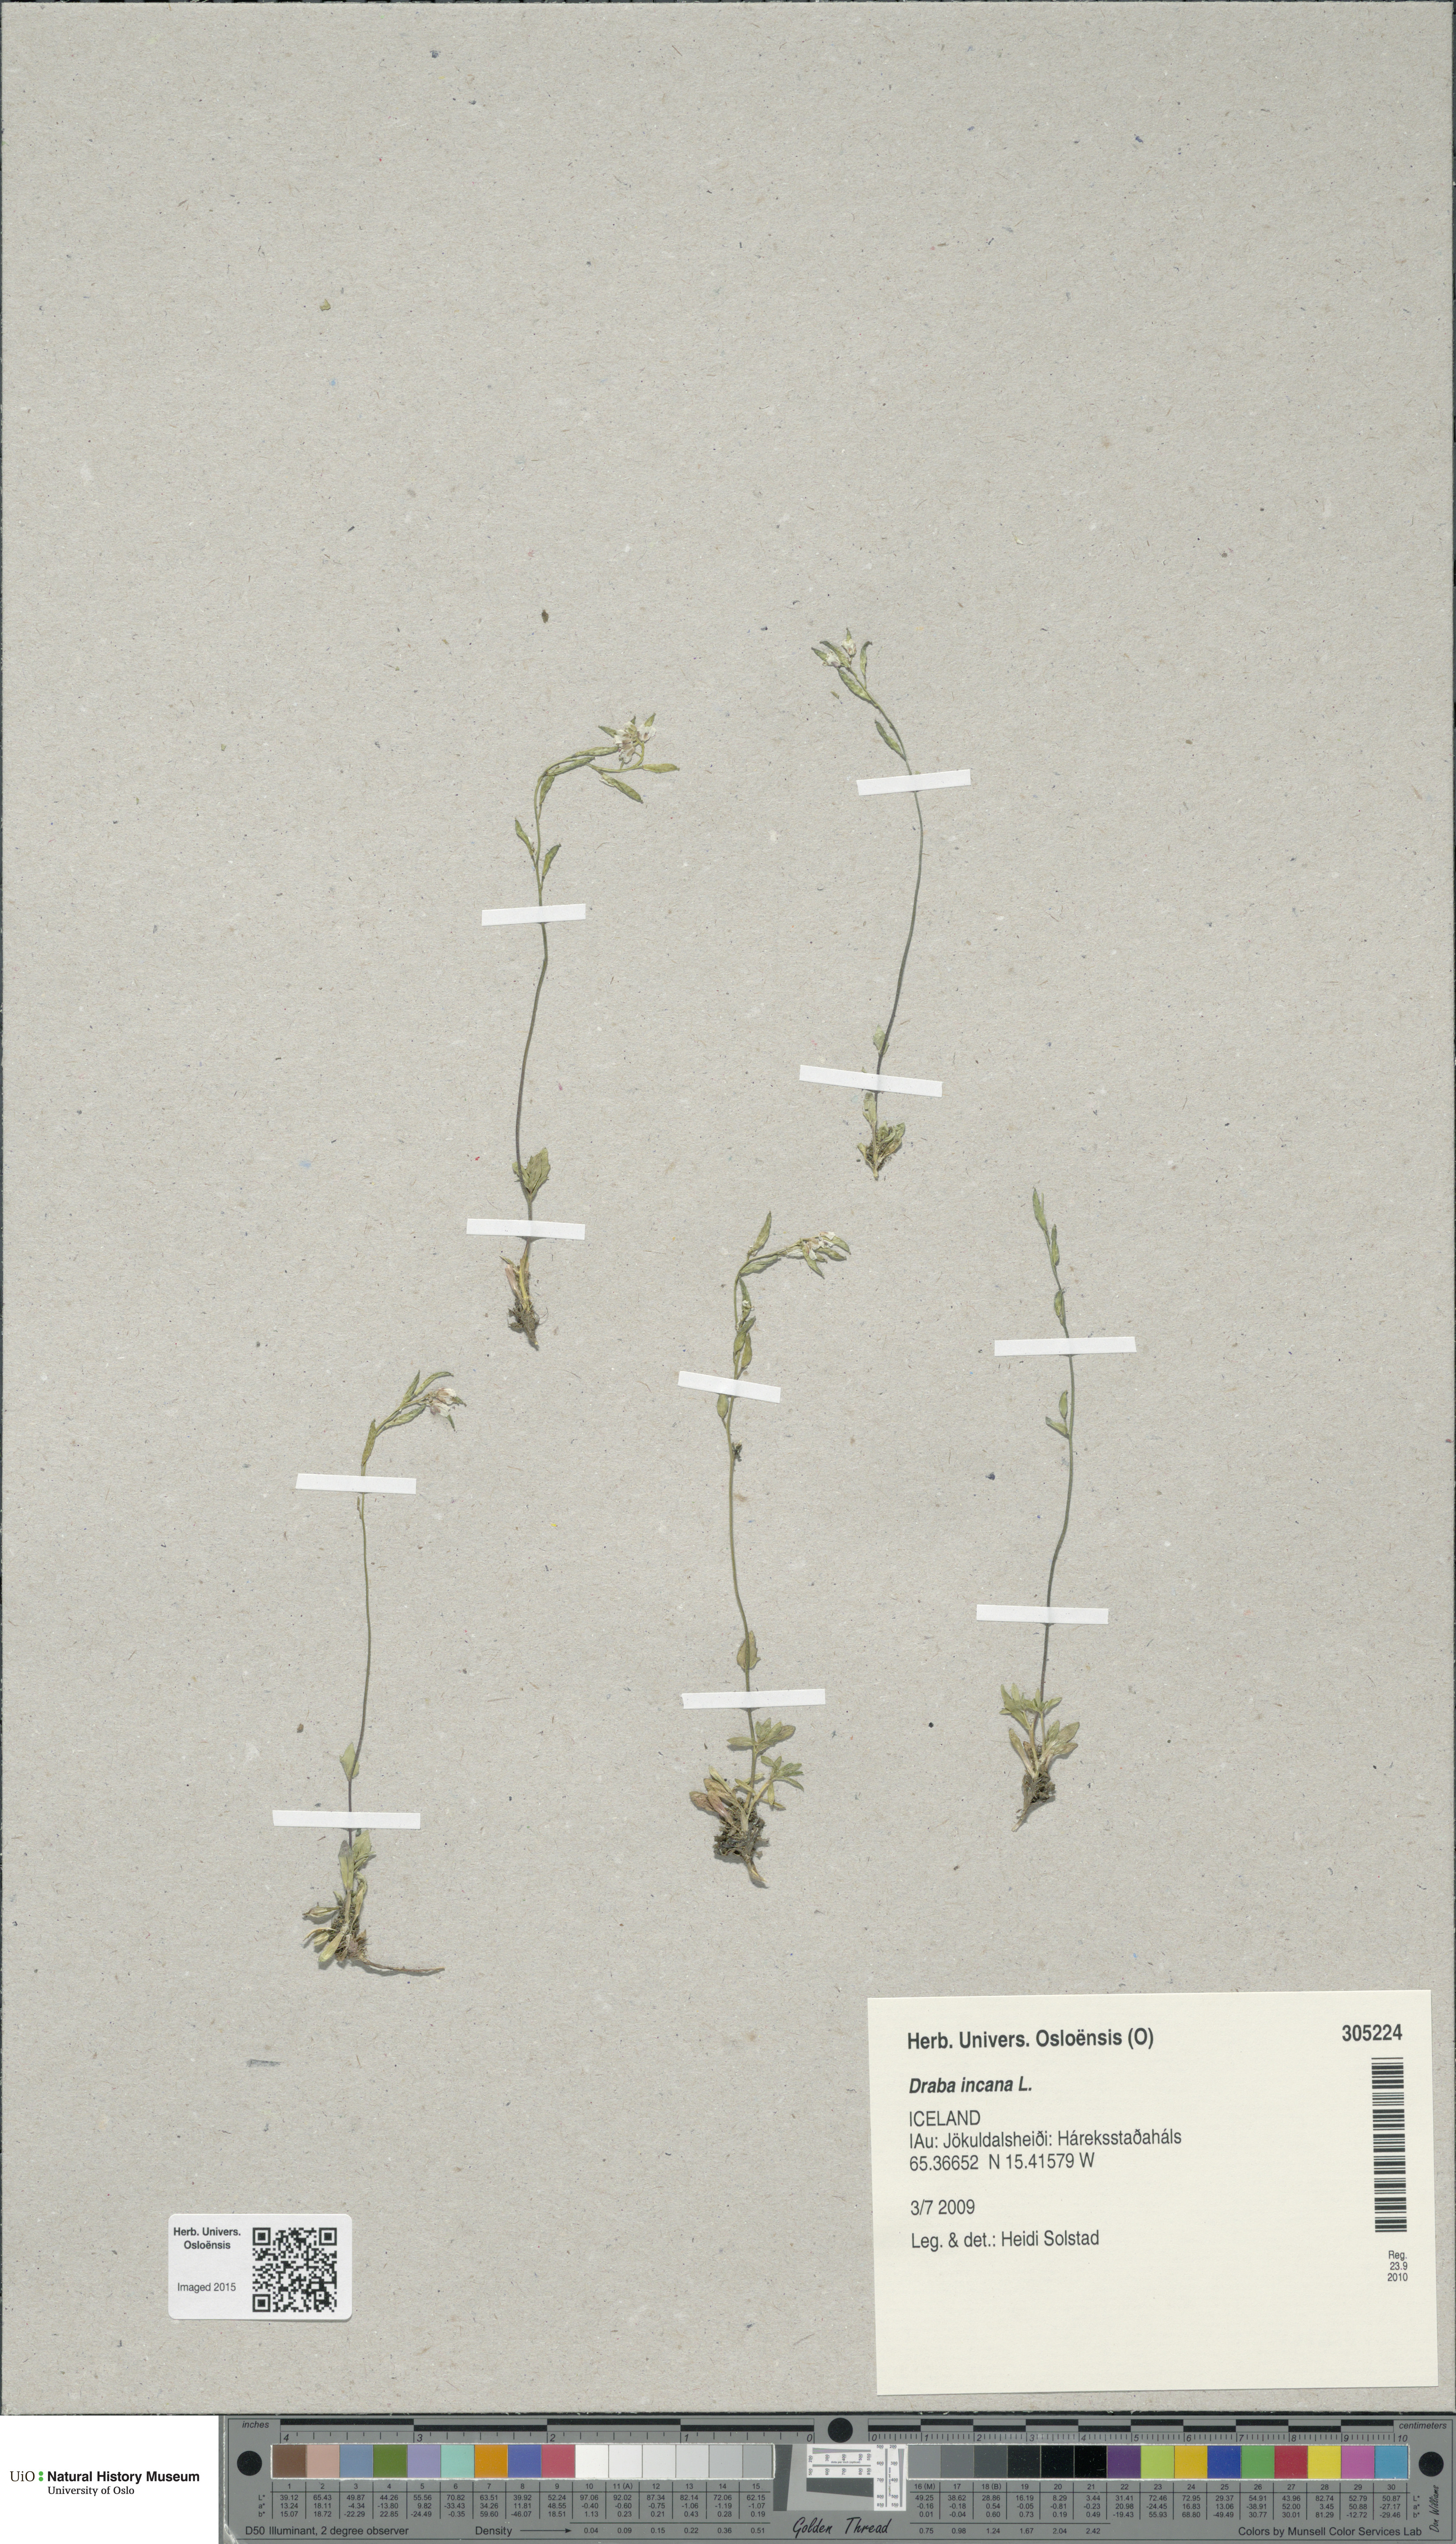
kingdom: Plantae
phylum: Tracheophyta
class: Magnoliopsida
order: Brassicales
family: Brassicaceae
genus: Draba
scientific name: Draba incana
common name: Hoary whitlow-grass
